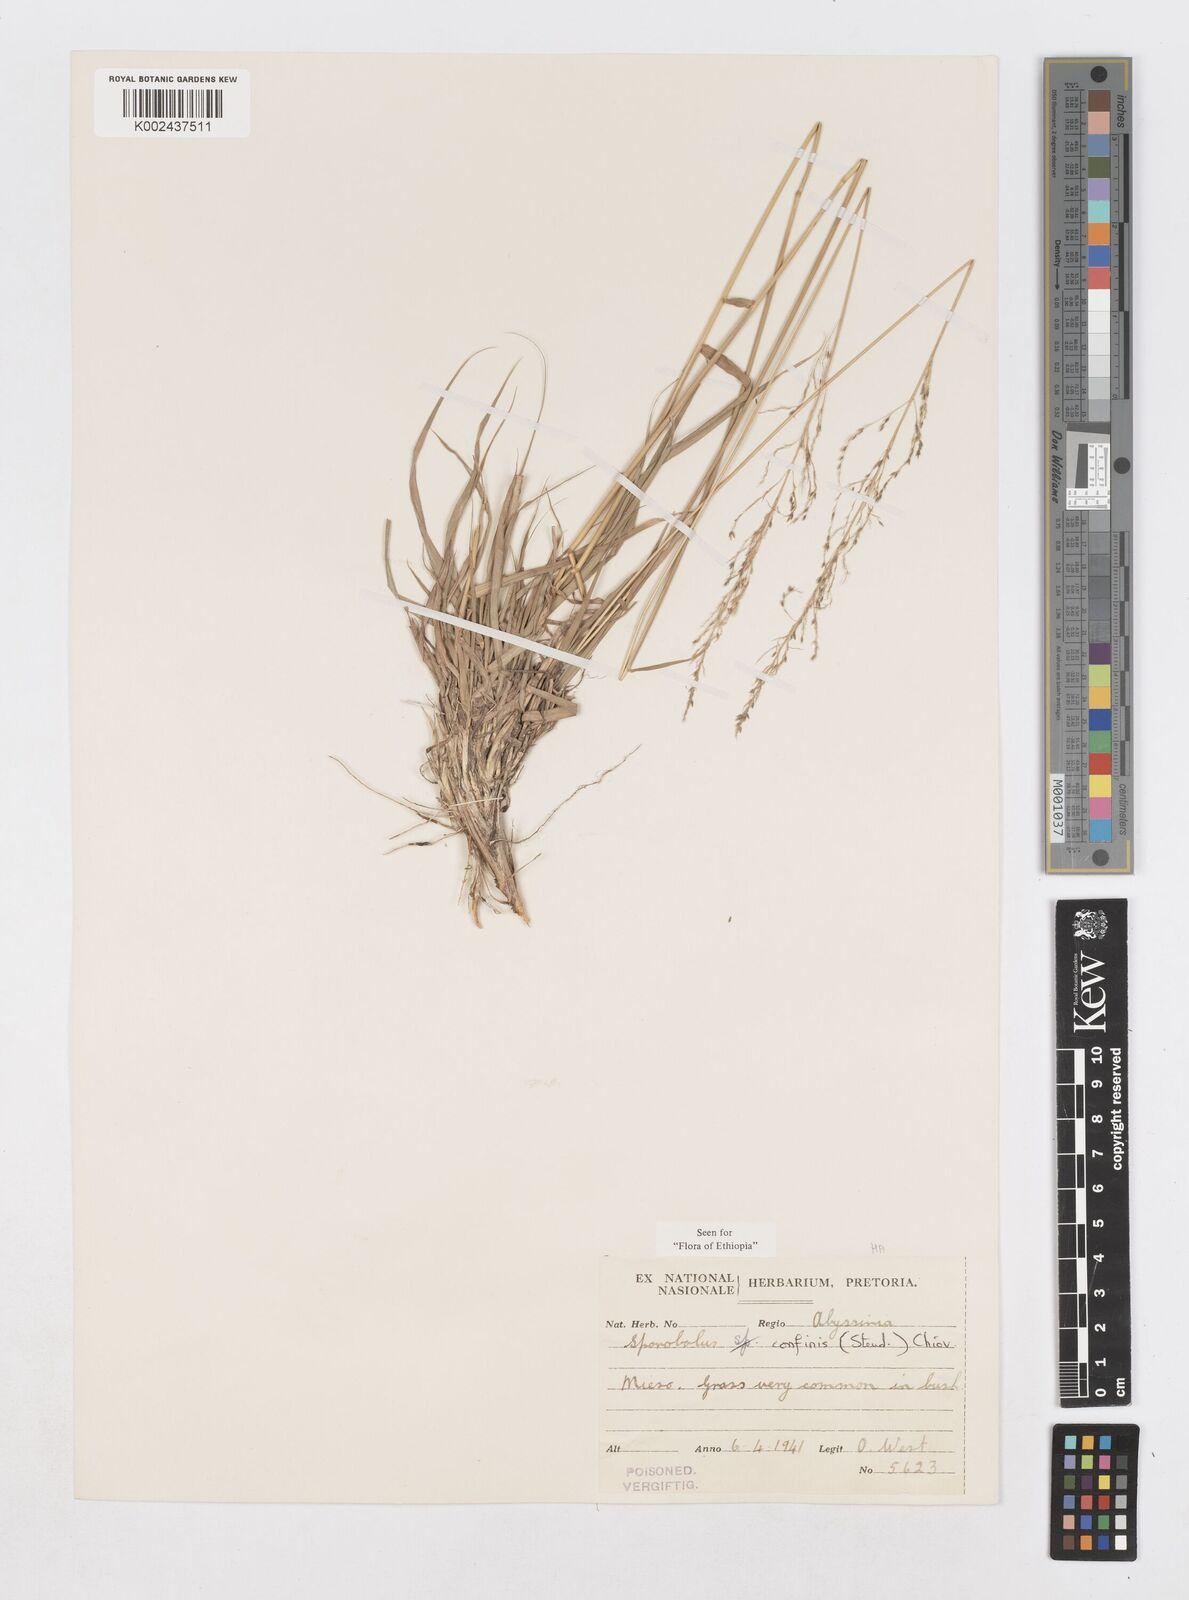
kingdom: Plantae
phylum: Tracheophyta
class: Liliopsida
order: Poales
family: Poaceae
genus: Sporobolus
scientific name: Sporobolus confinis
